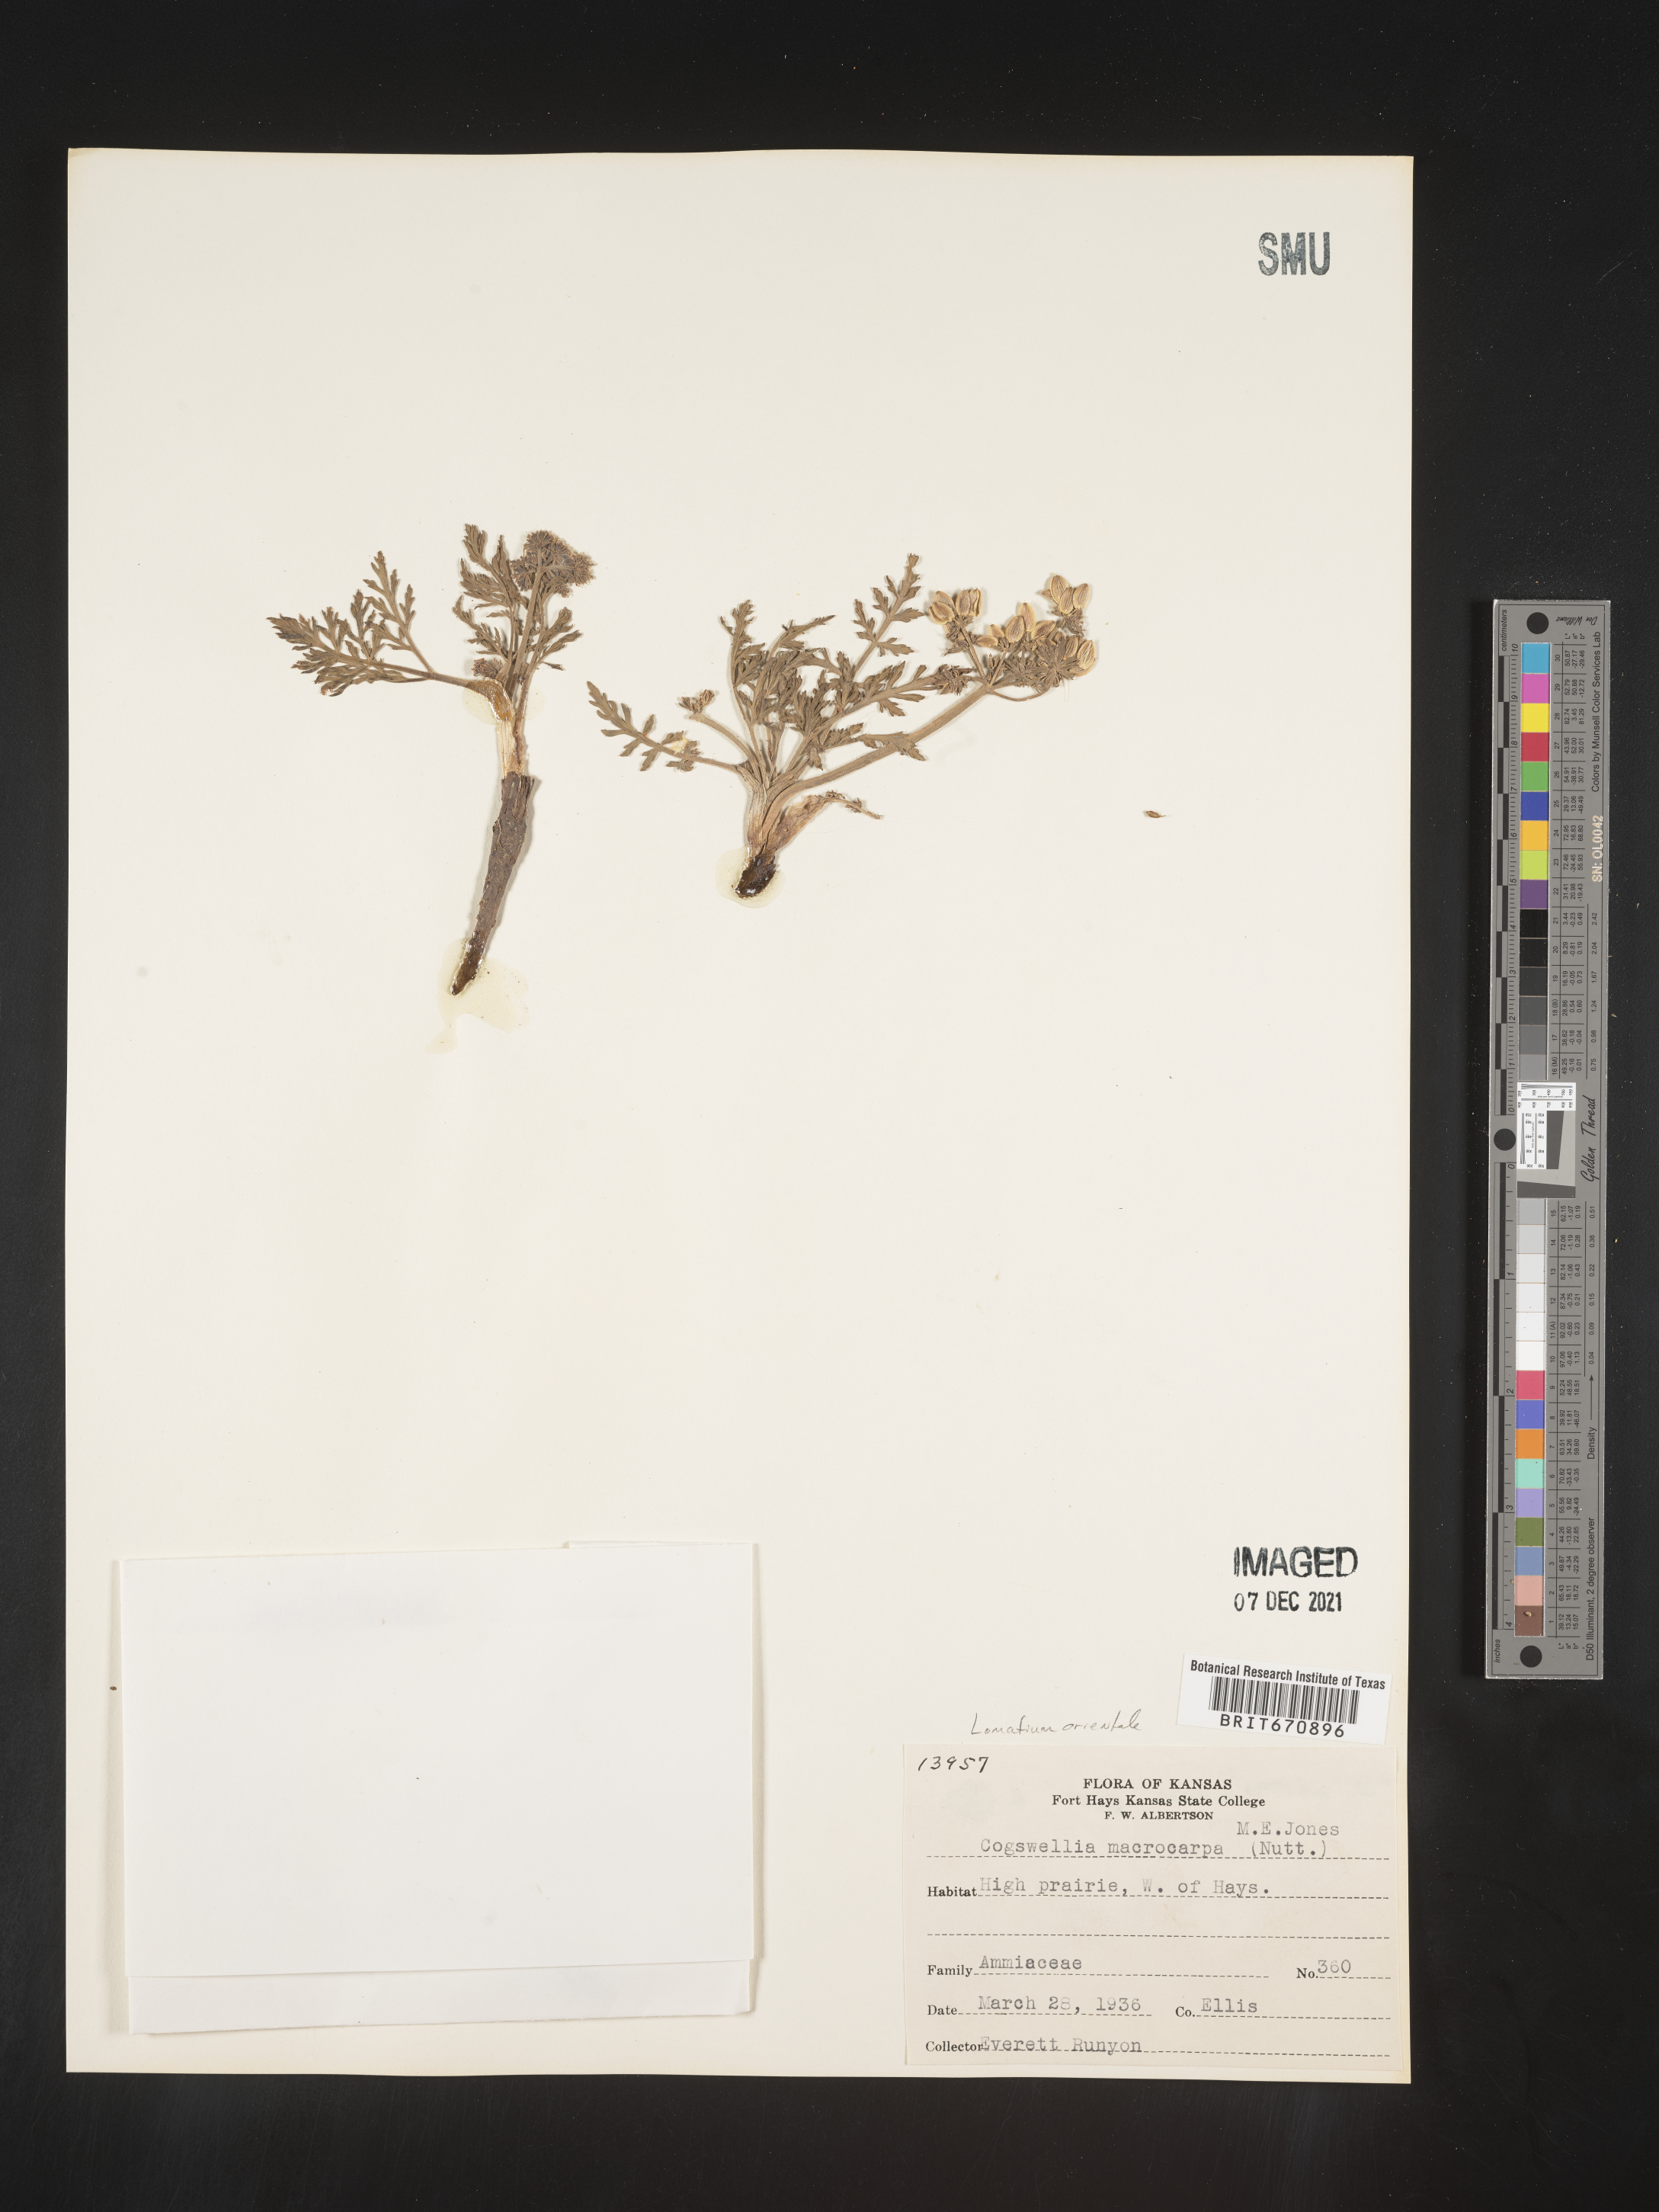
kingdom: Plantae
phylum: Tracheophyta
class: Magnoliopsida
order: Apiales
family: Apiaceae
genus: Lomatium
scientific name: Lomatium
